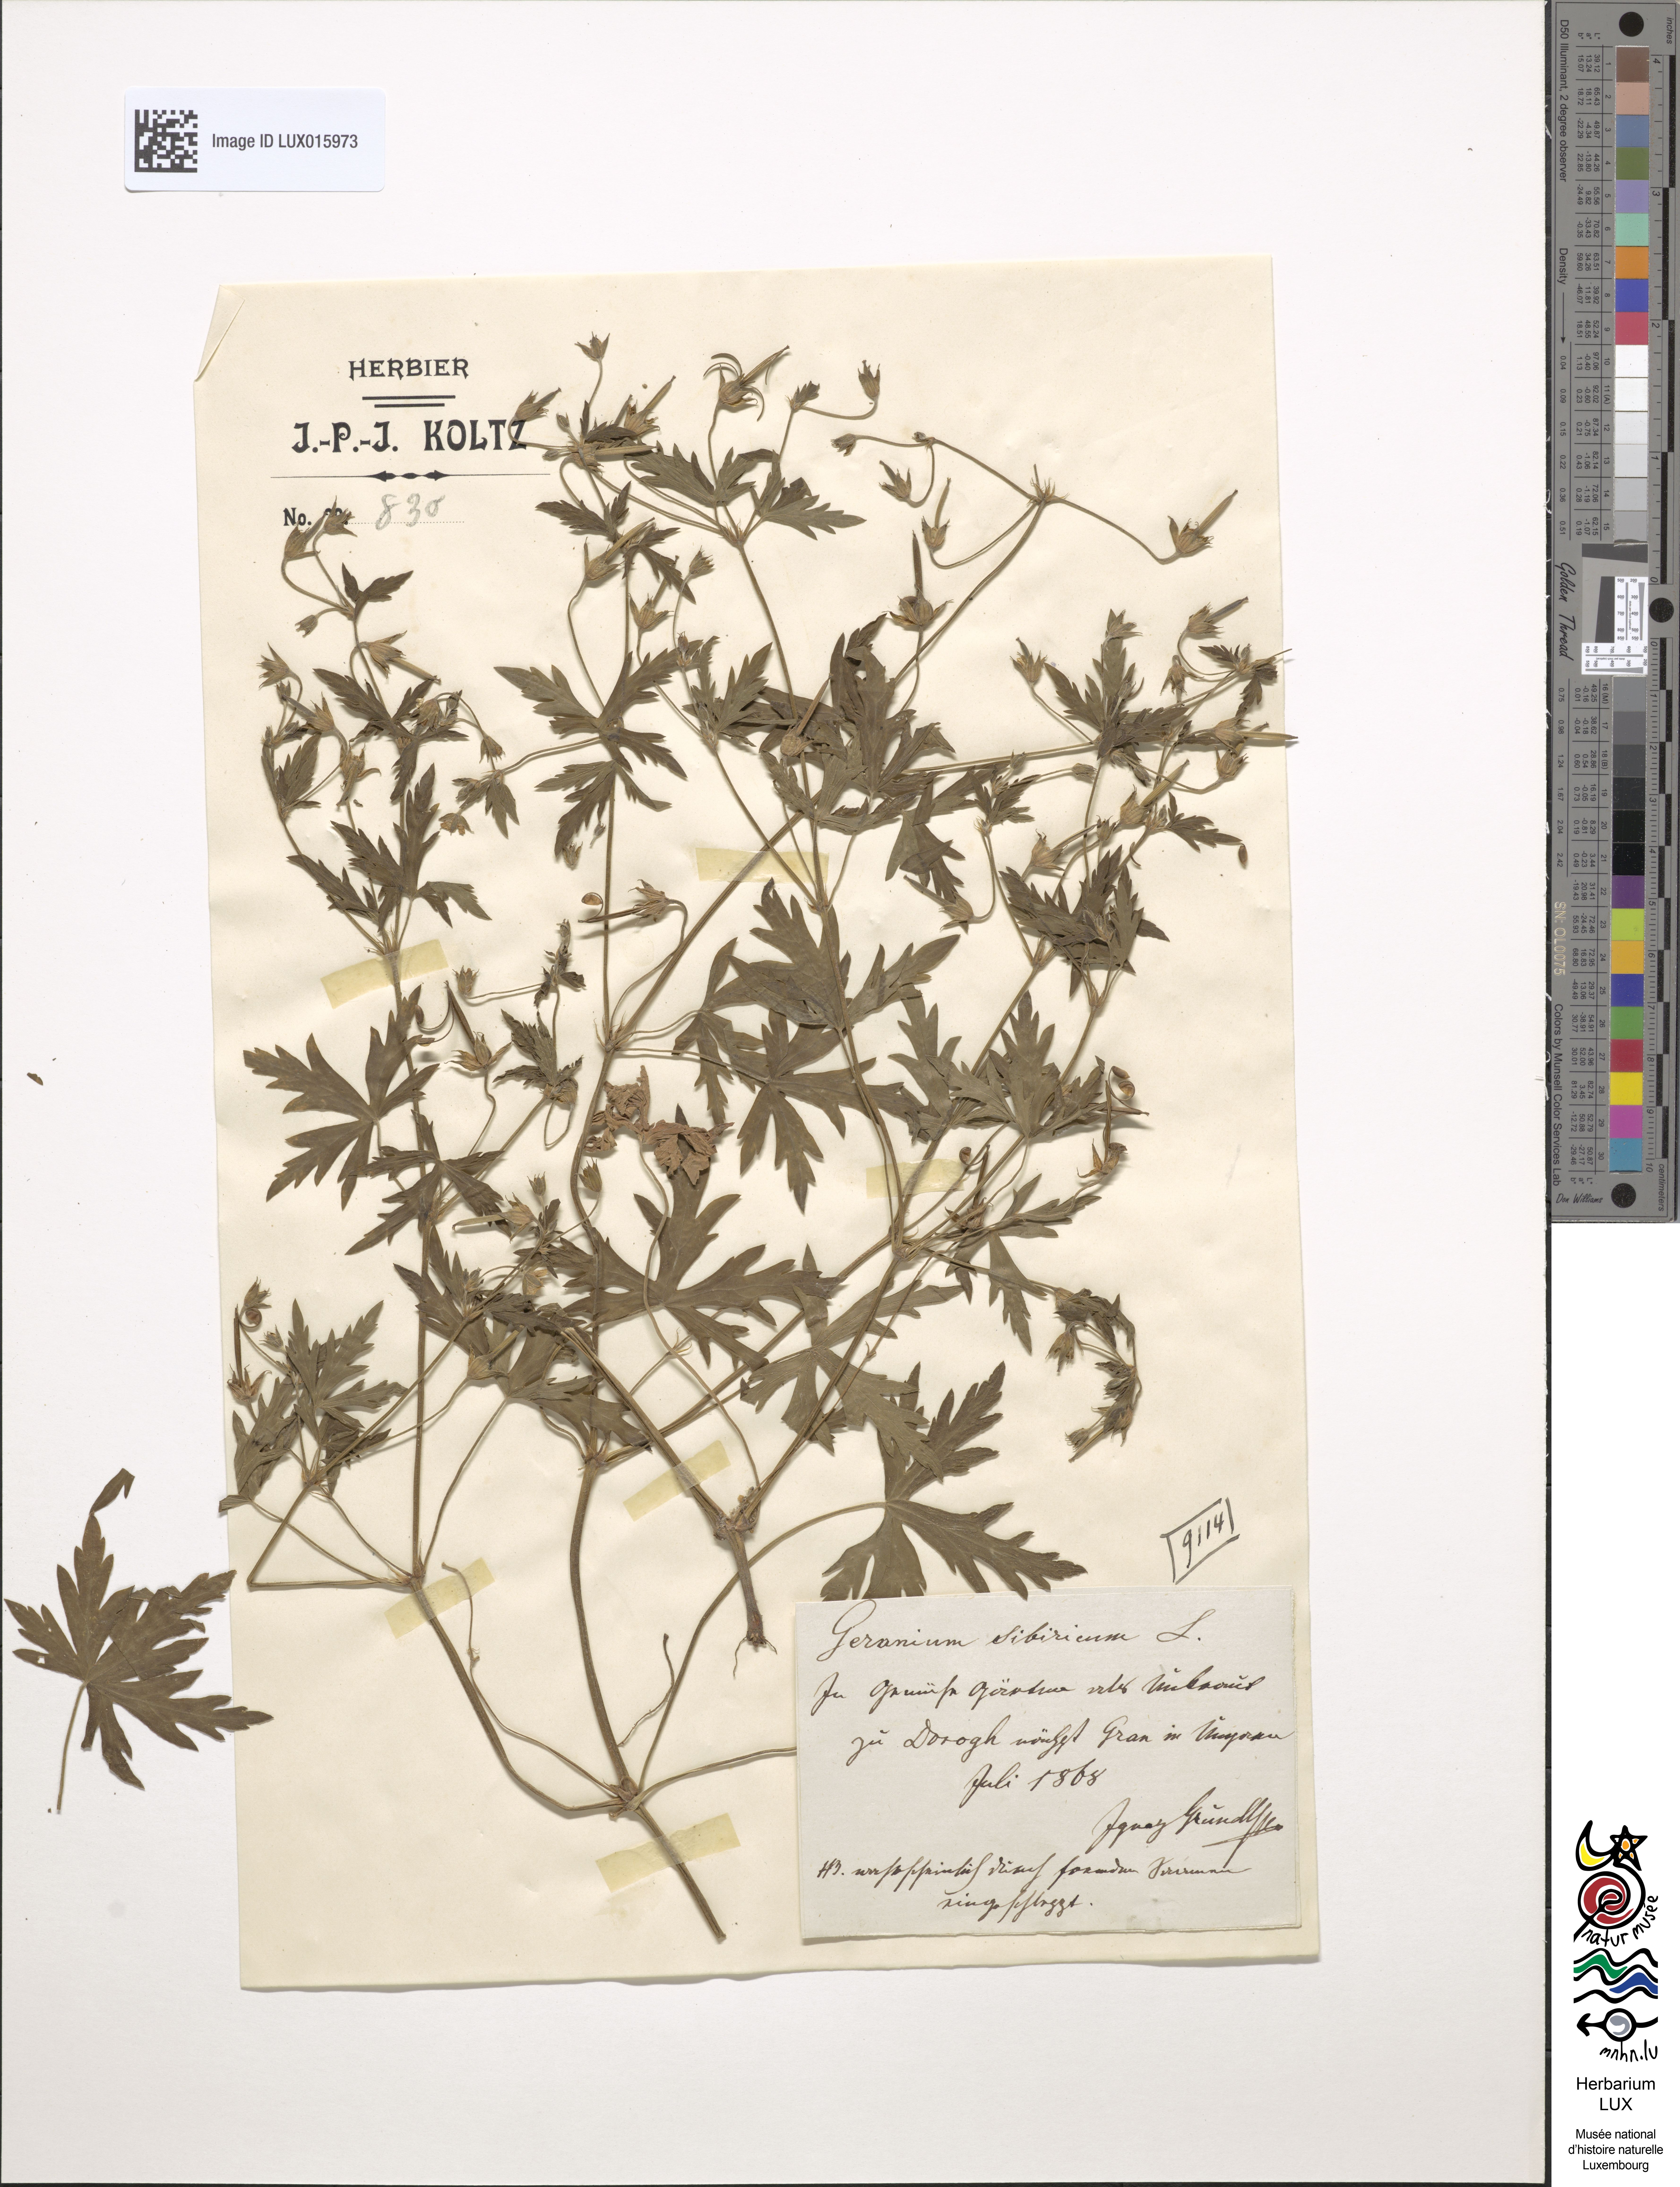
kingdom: Plantae
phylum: Tracheophyta
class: Magnoliopsida
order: Geraniales
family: Geraniaceae
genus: Geranium
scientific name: Geranium sibiricum
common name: Siberian crane's-bill
